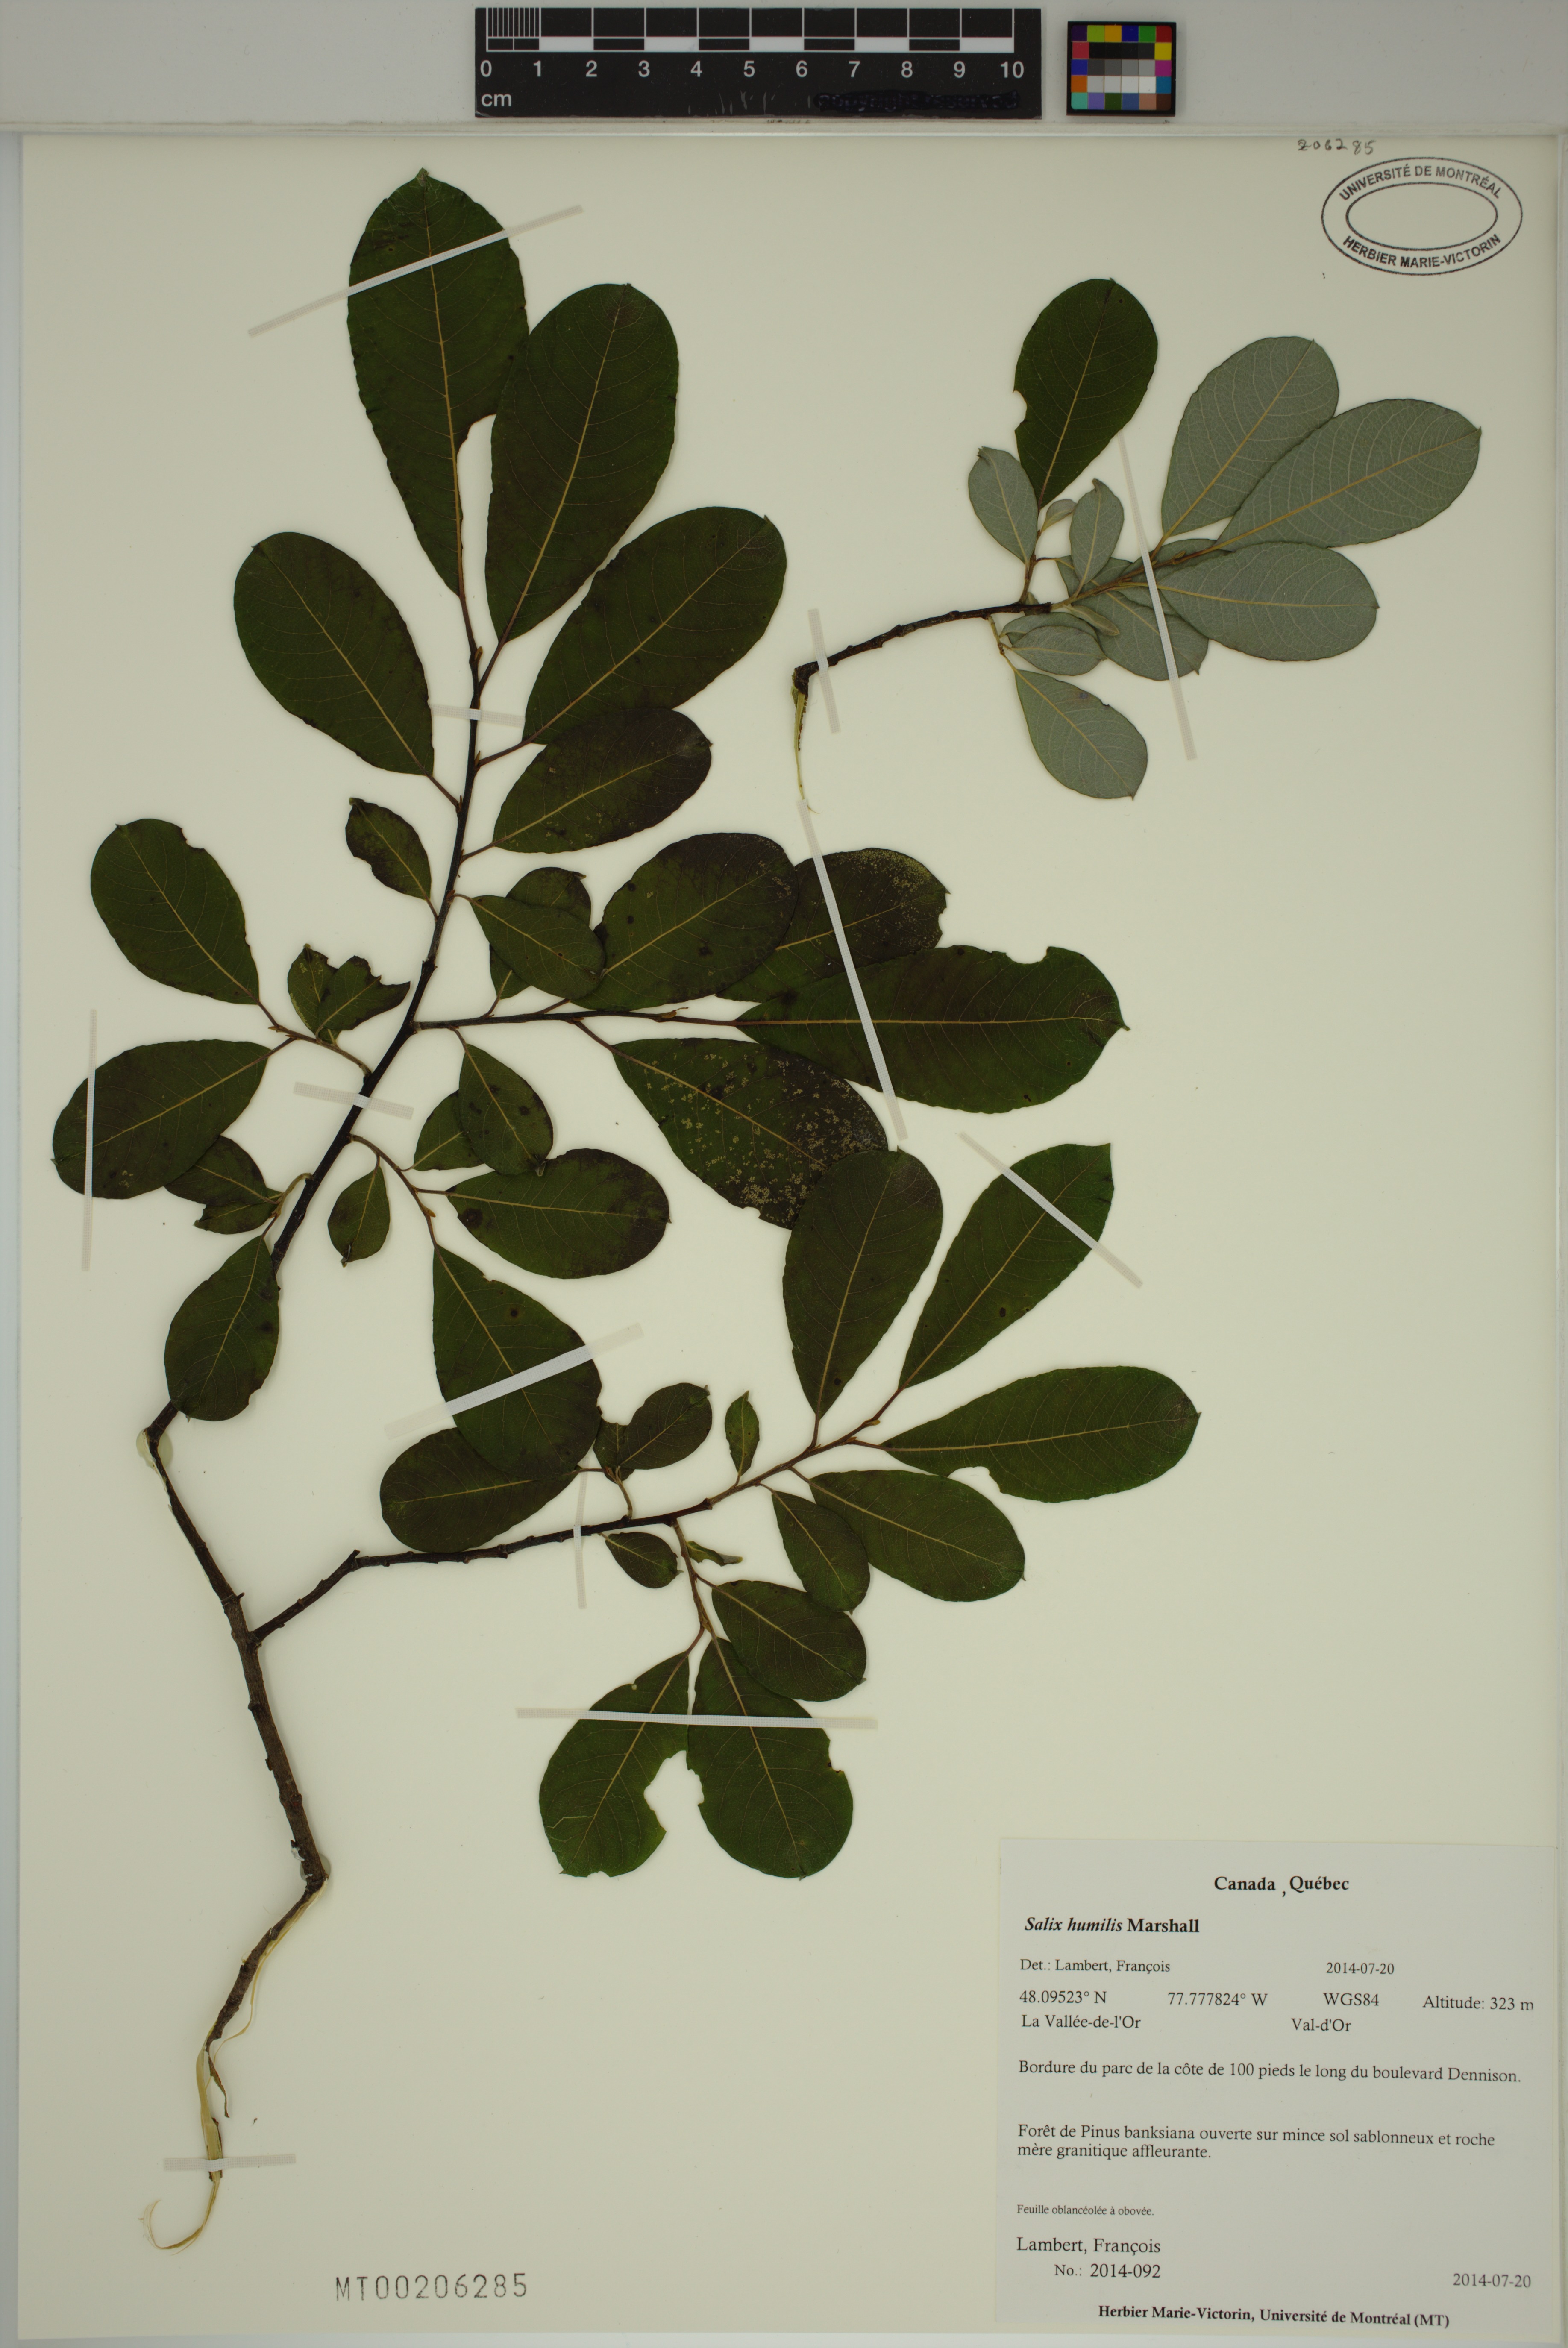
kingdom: Plantae
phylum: Tracheophyta
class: Magnoliopsida
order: Malpighiales
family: Salicaceae
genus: Salix
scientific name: Salix humilis
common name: Prairie willow
